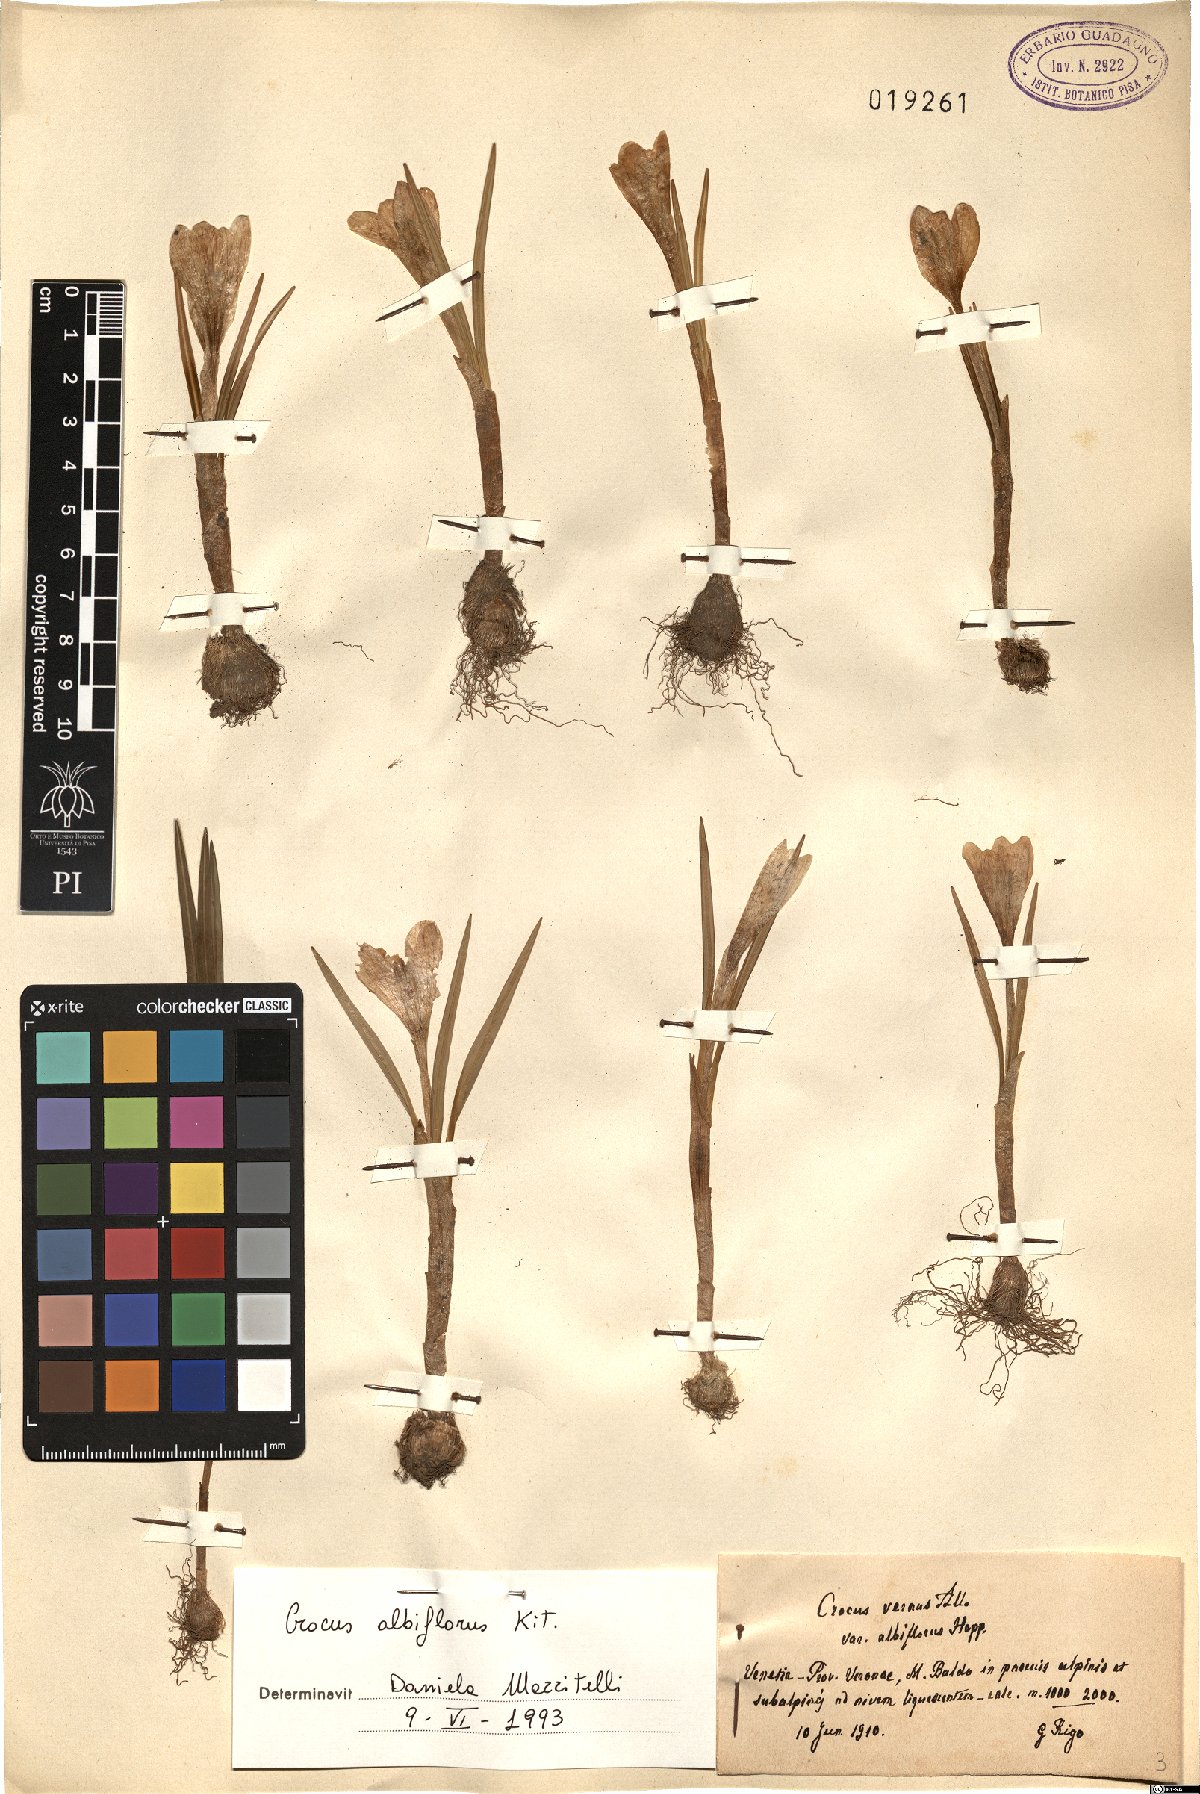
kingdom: Plantae
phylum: Tracheophyta
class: Liliopsida
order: Asparagales
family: Iridaceae
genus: Crocus
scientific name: Crocus vernus
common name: Spring crocus
